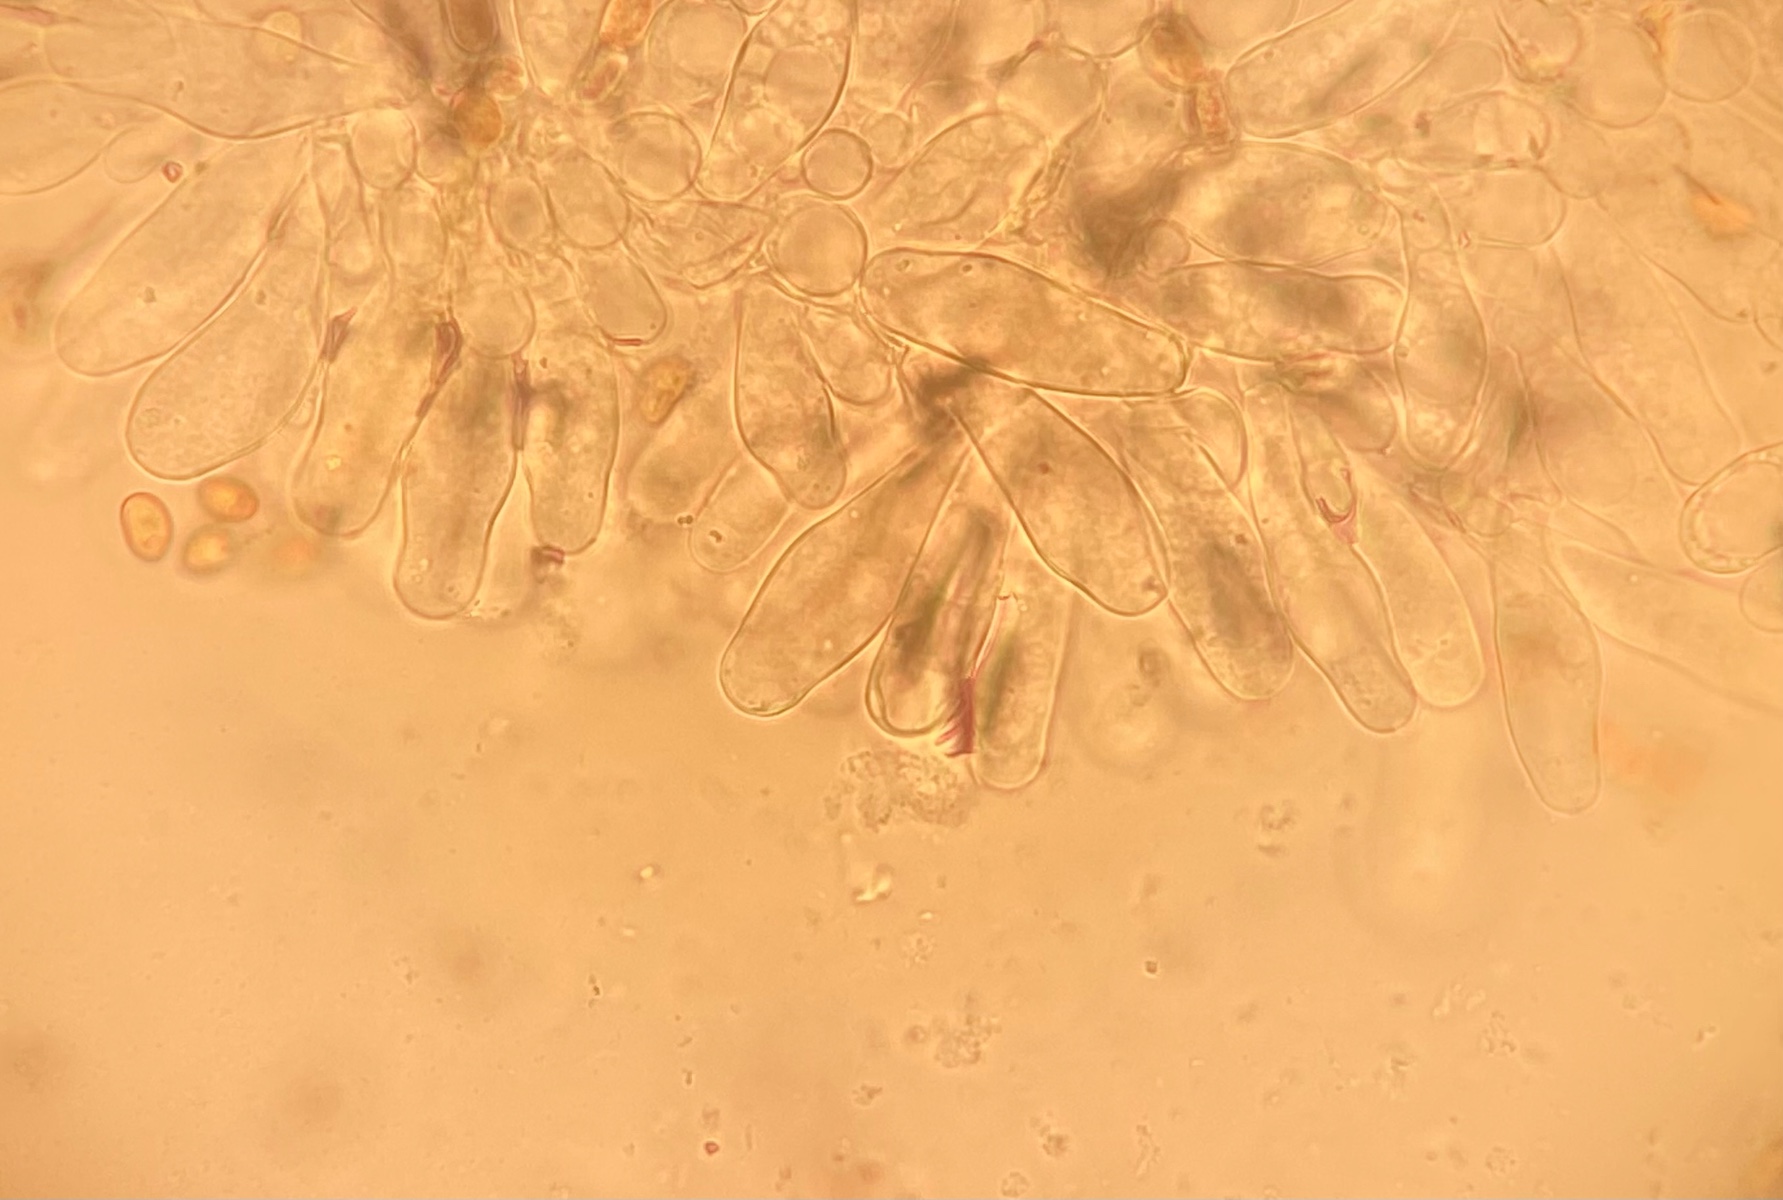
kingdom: Fungi
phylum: Basidiomycota
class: Agaricomycetes
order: Agaricales
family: Inocybaceae
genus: Pseudosperma
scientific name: Pseudosperma
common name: trævlhat
